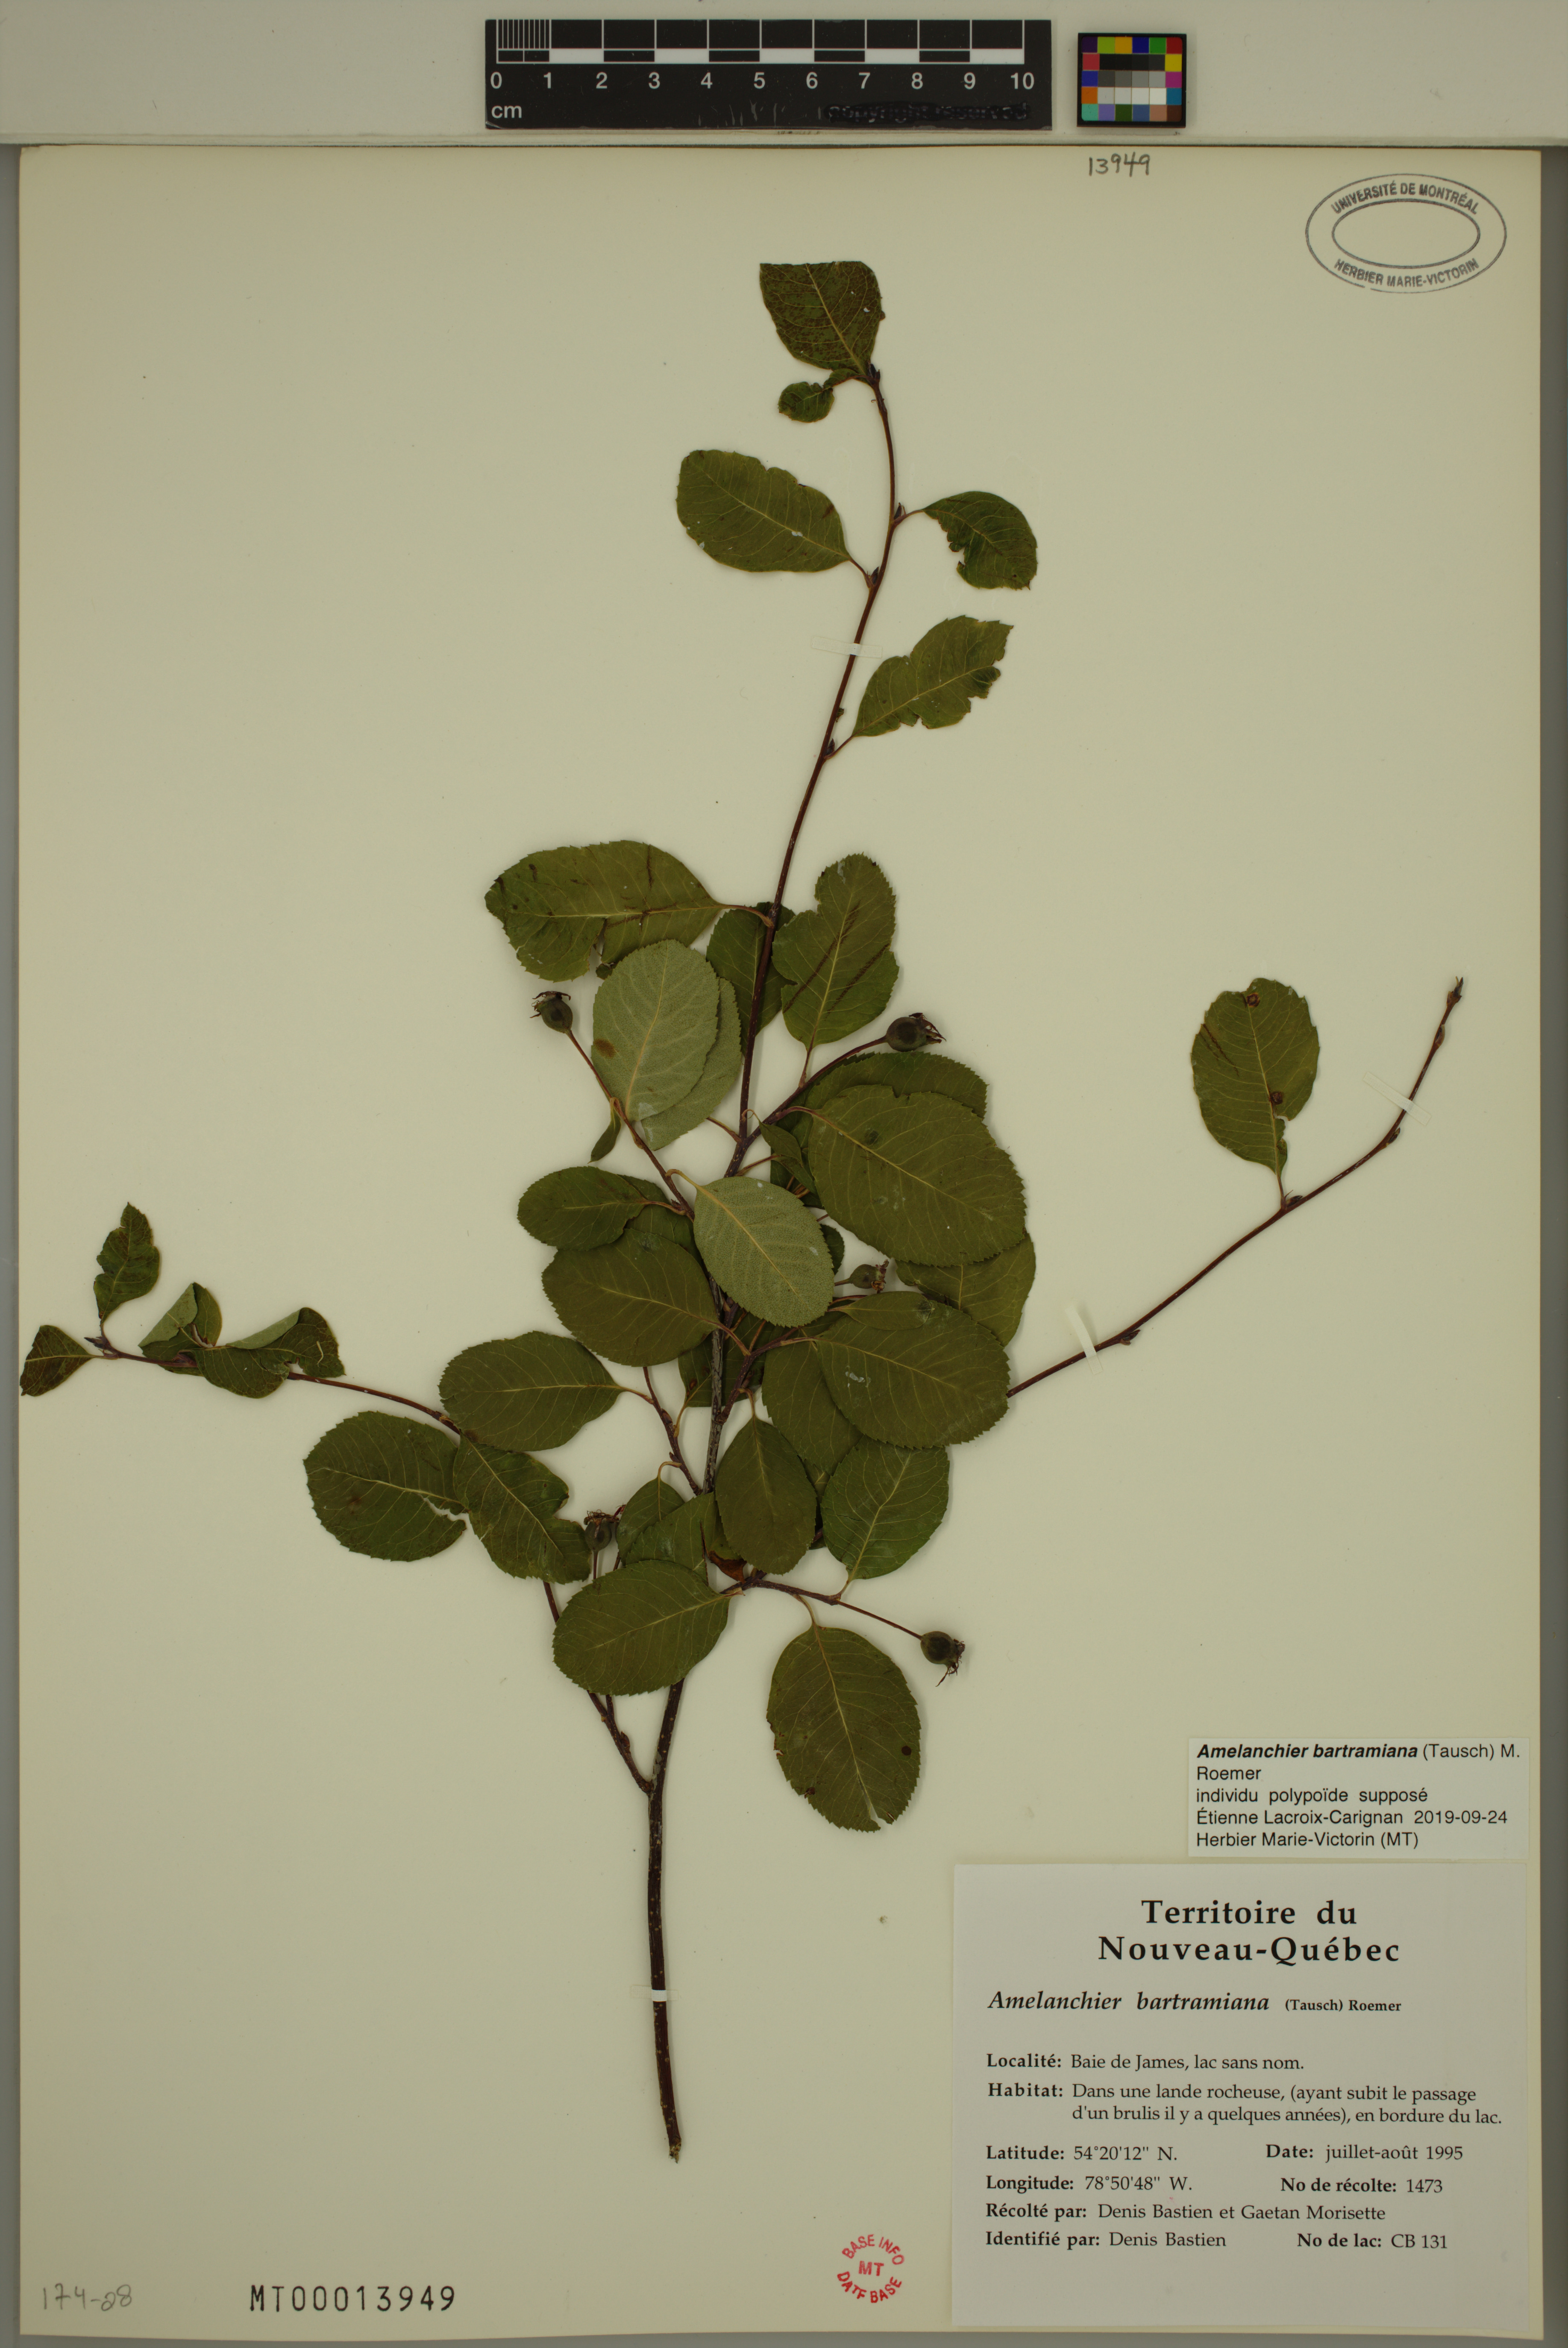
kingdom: Plantae
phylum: Tracheophyta
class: Magnoliopsida
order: Rosales
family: Rosaceae
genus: Amelanchier
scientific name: Amelanchier bartramiana
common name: Mountain serviceberry
